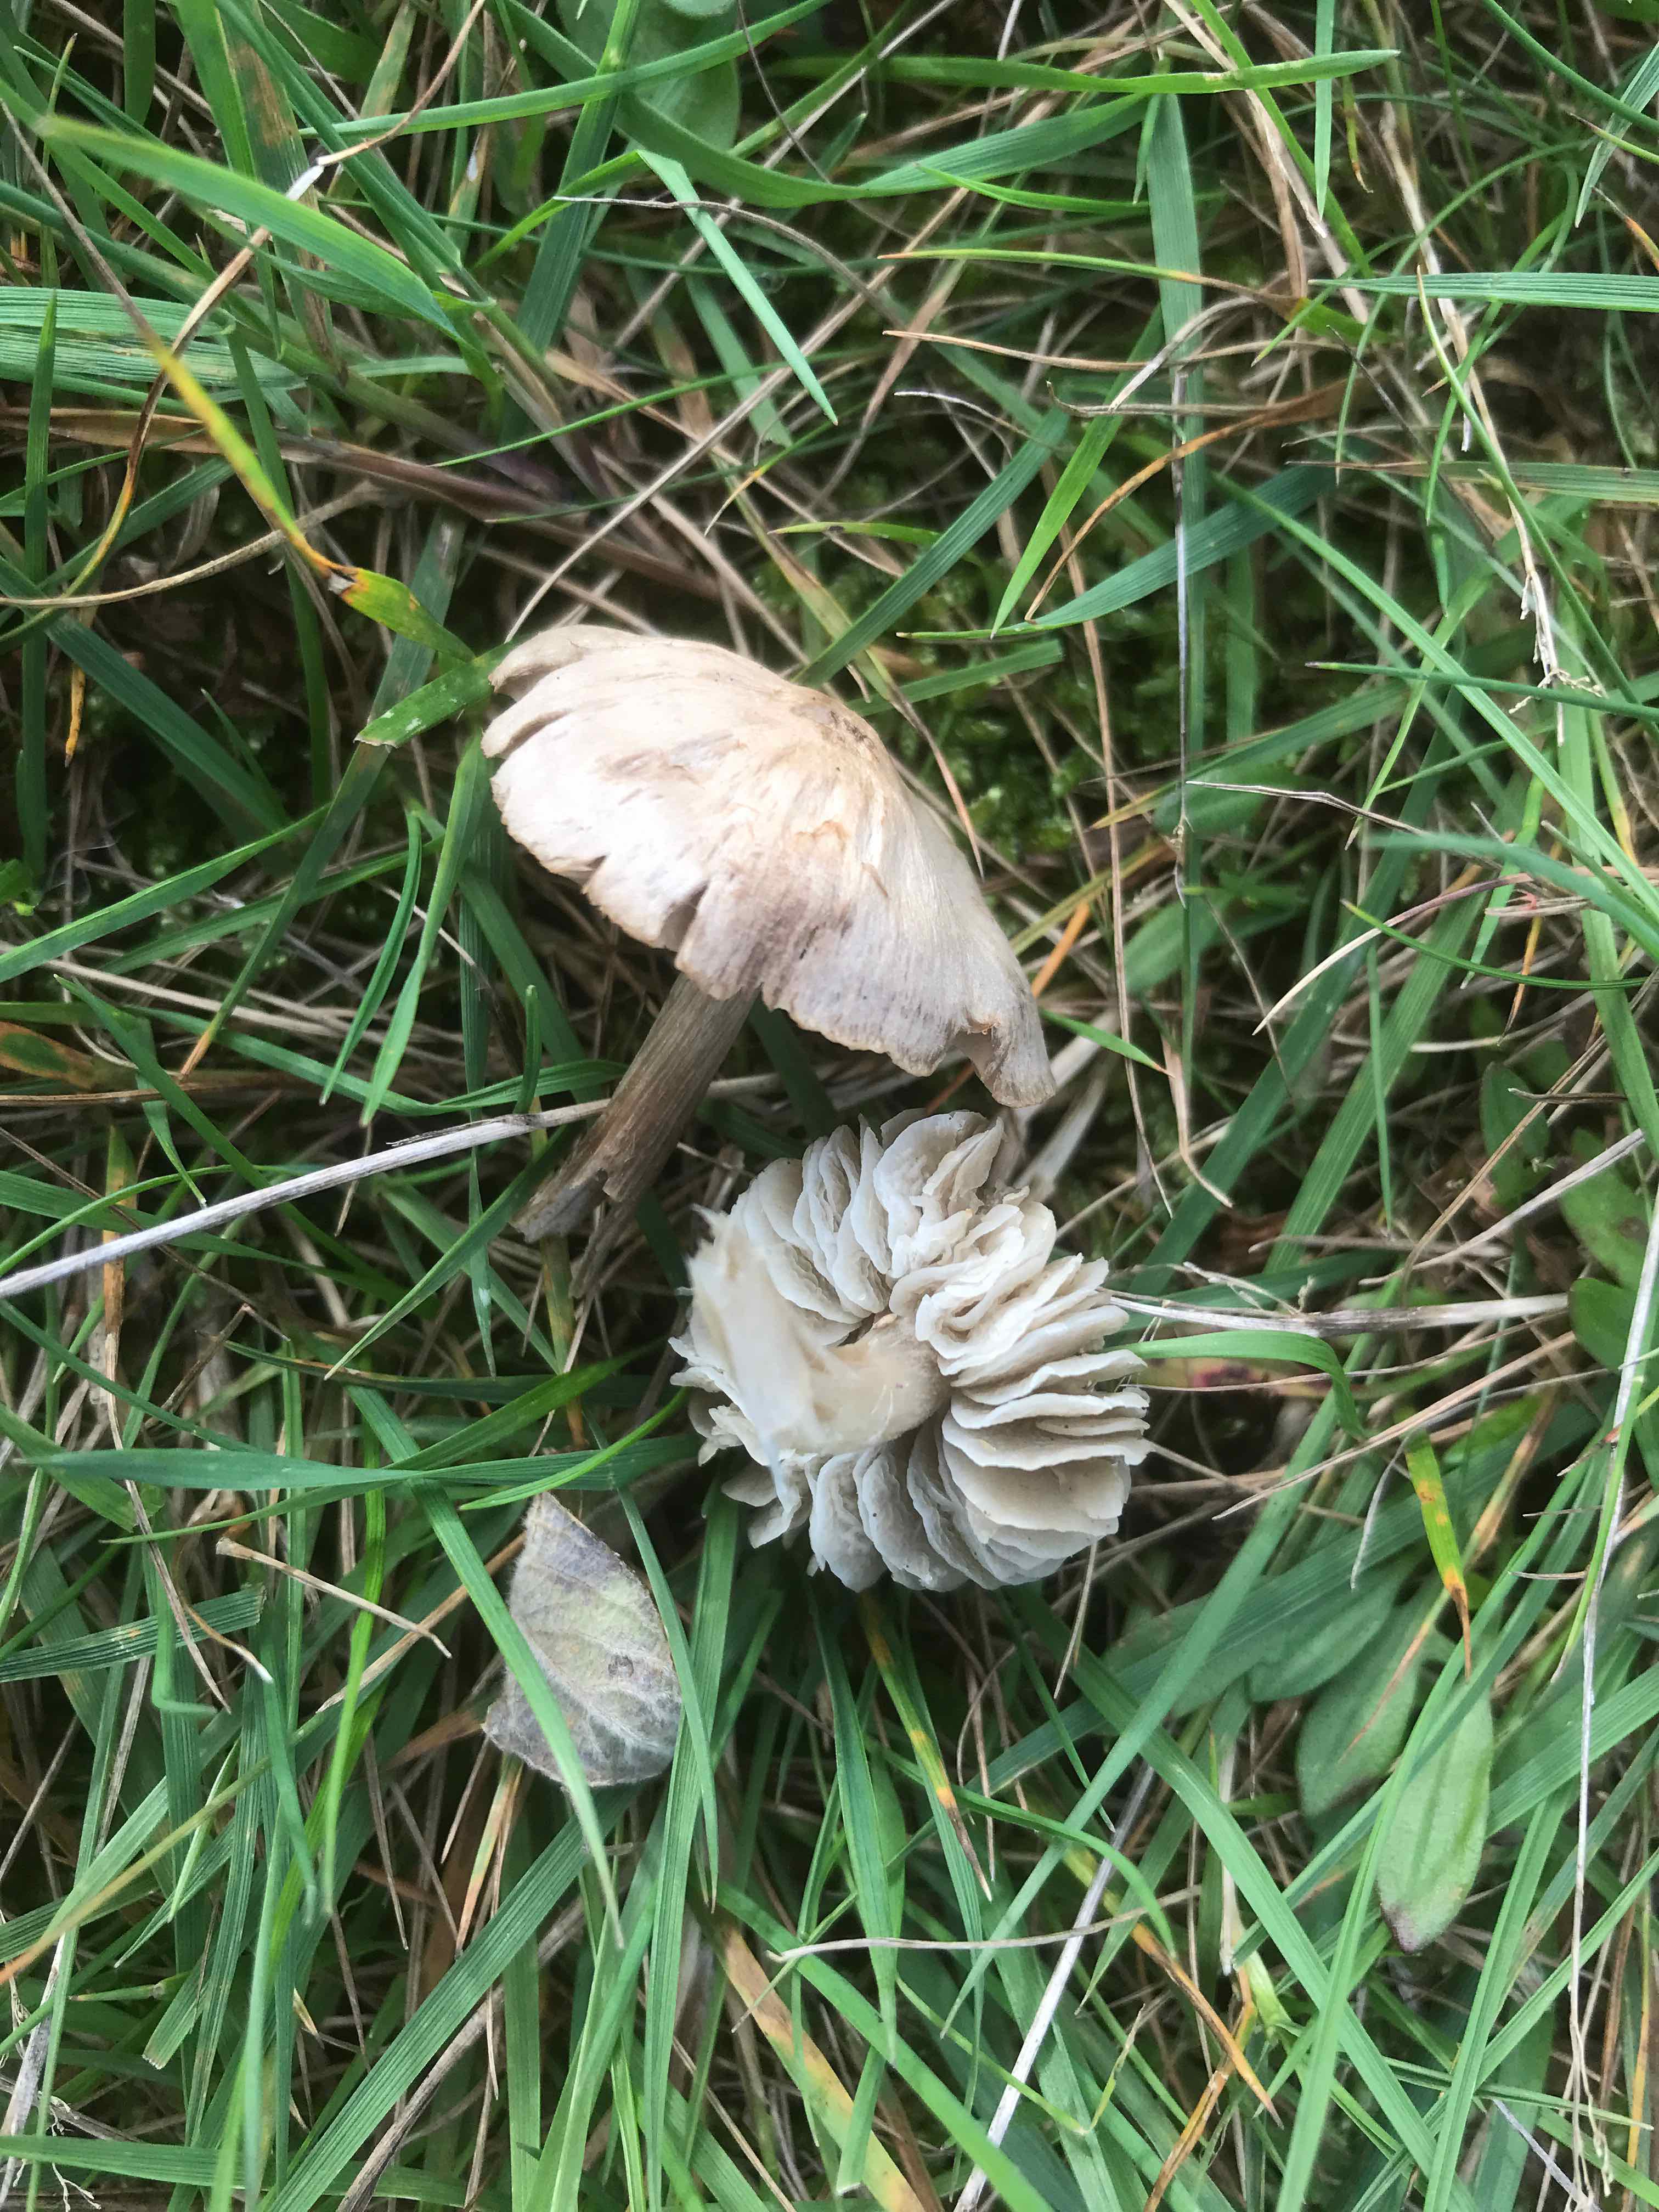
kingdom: Fungi
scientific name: Fungi
